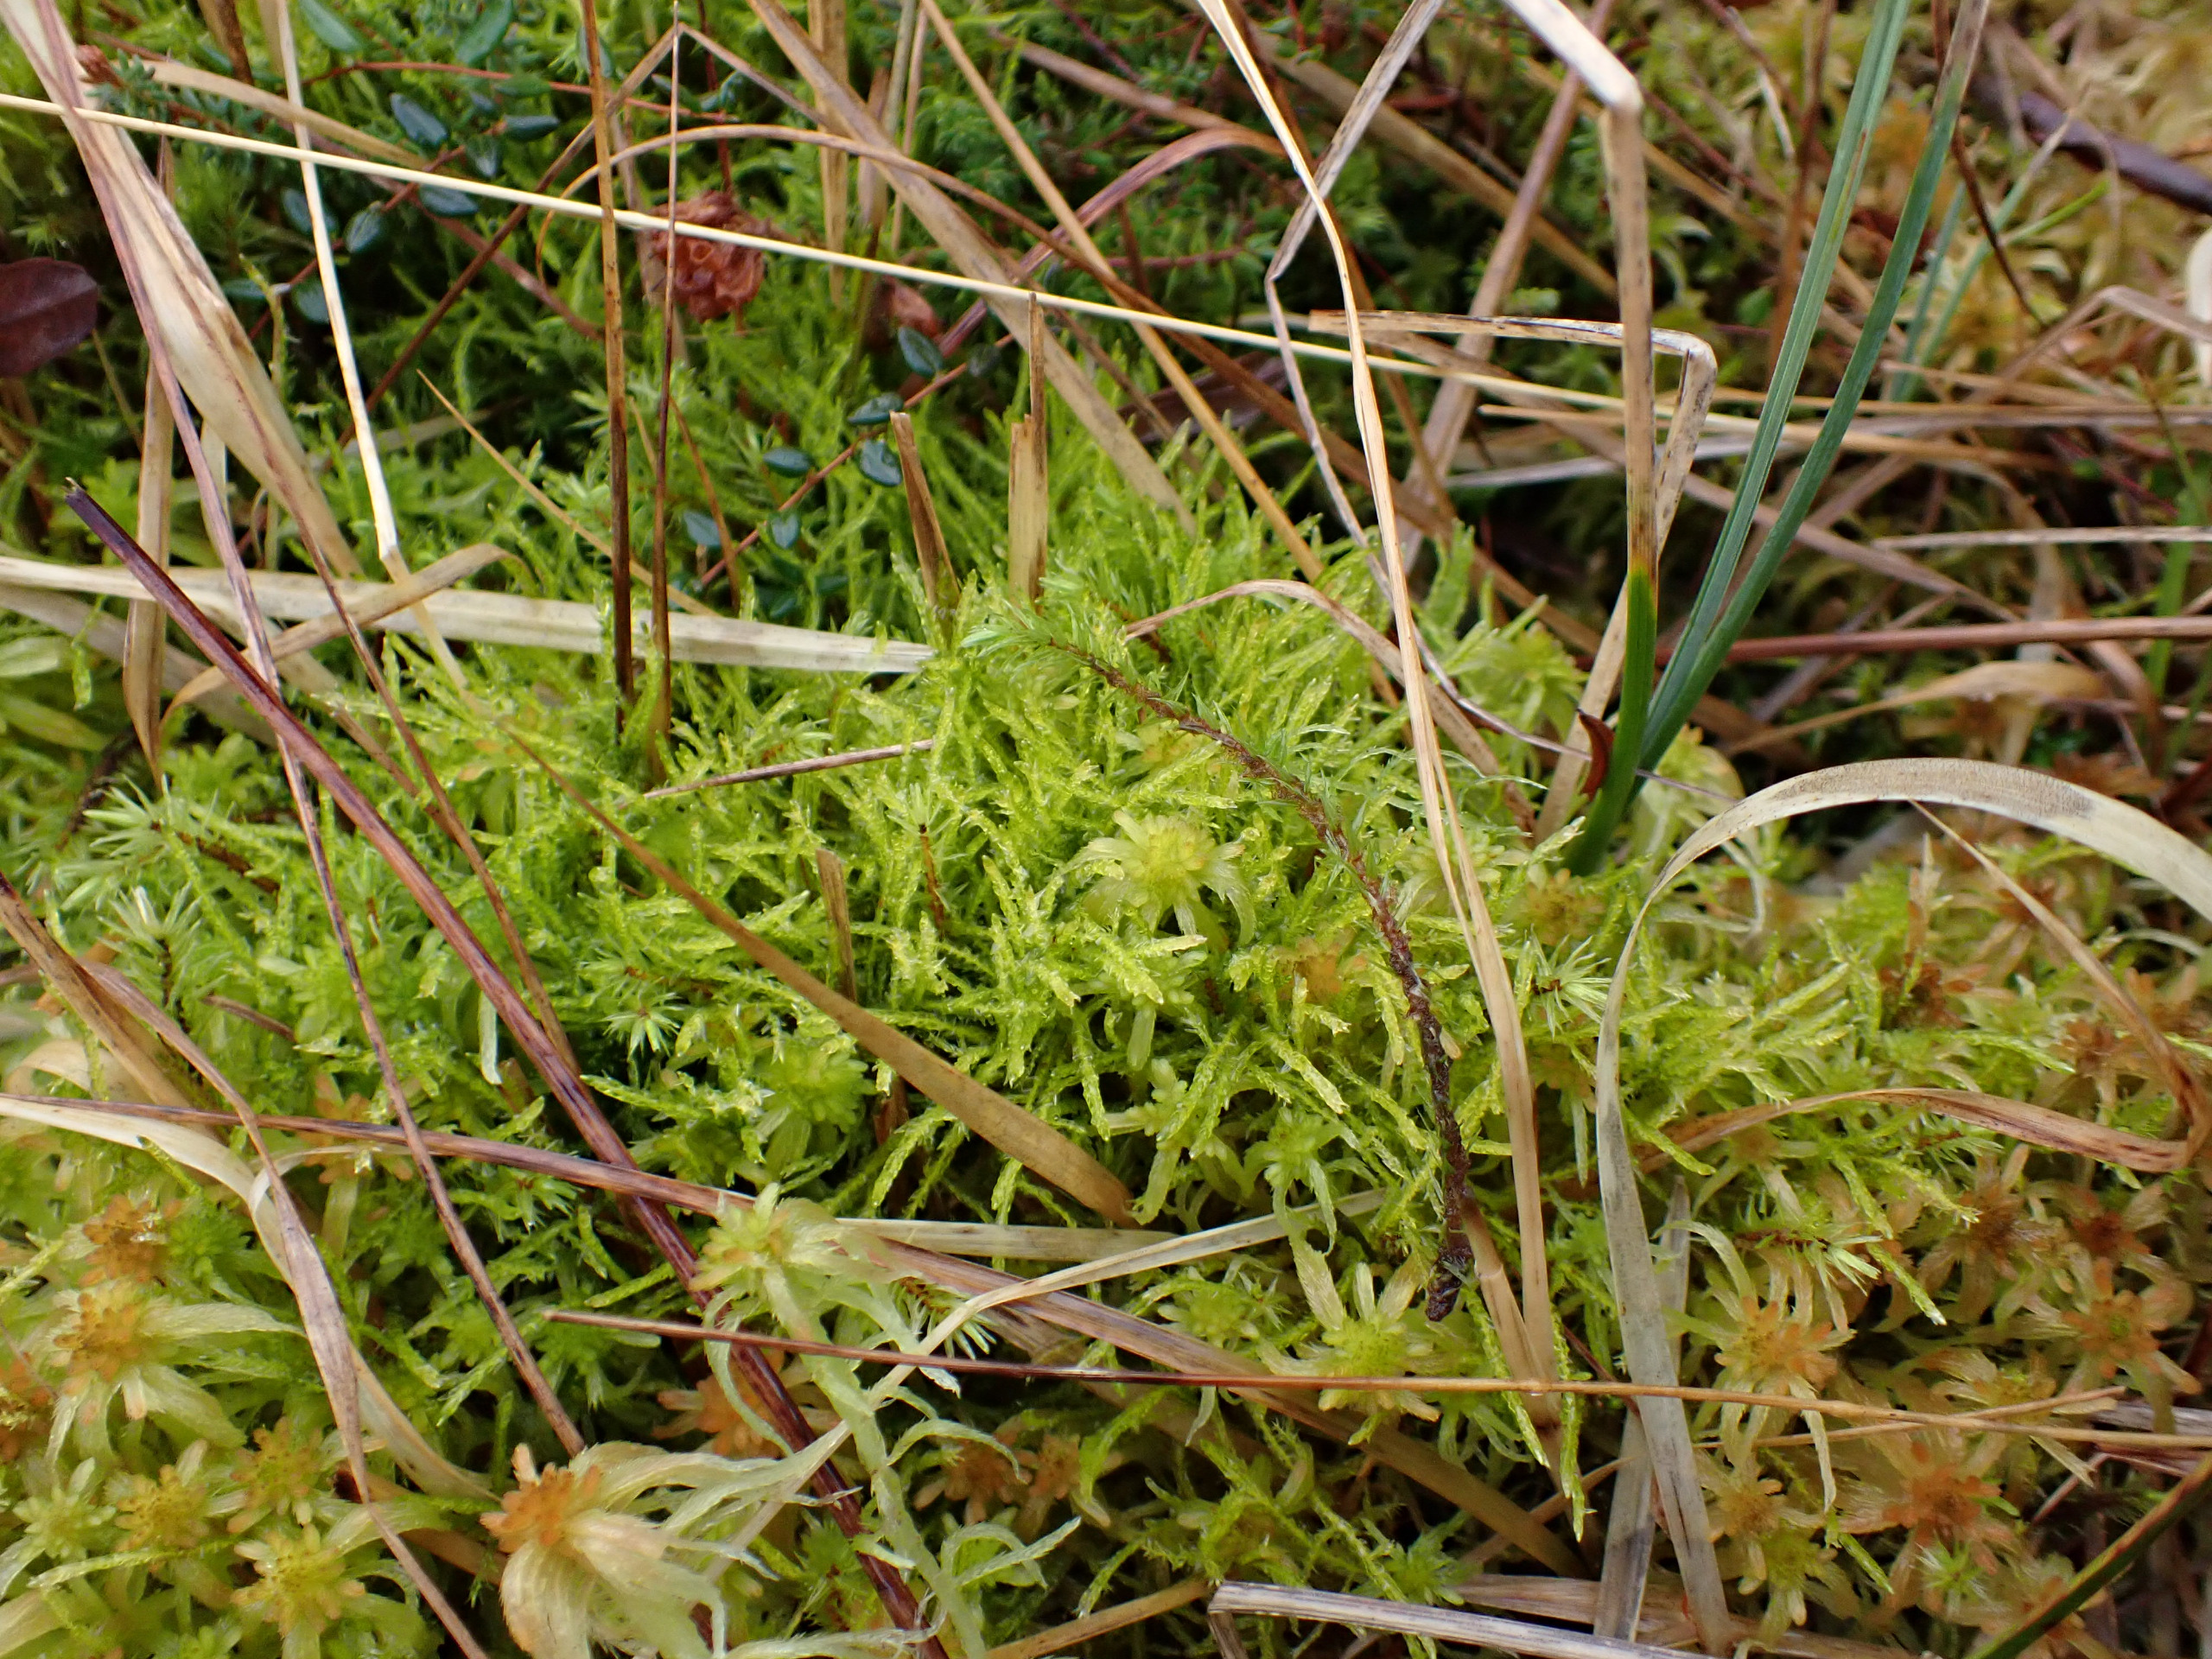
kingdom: Plantae
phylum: Bryophyta
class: Bryopsida
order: Hypnales
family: Calliergonaceae
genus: Straminergon
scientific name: Straminergon stramineum
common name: Tråd-skebladsmos
